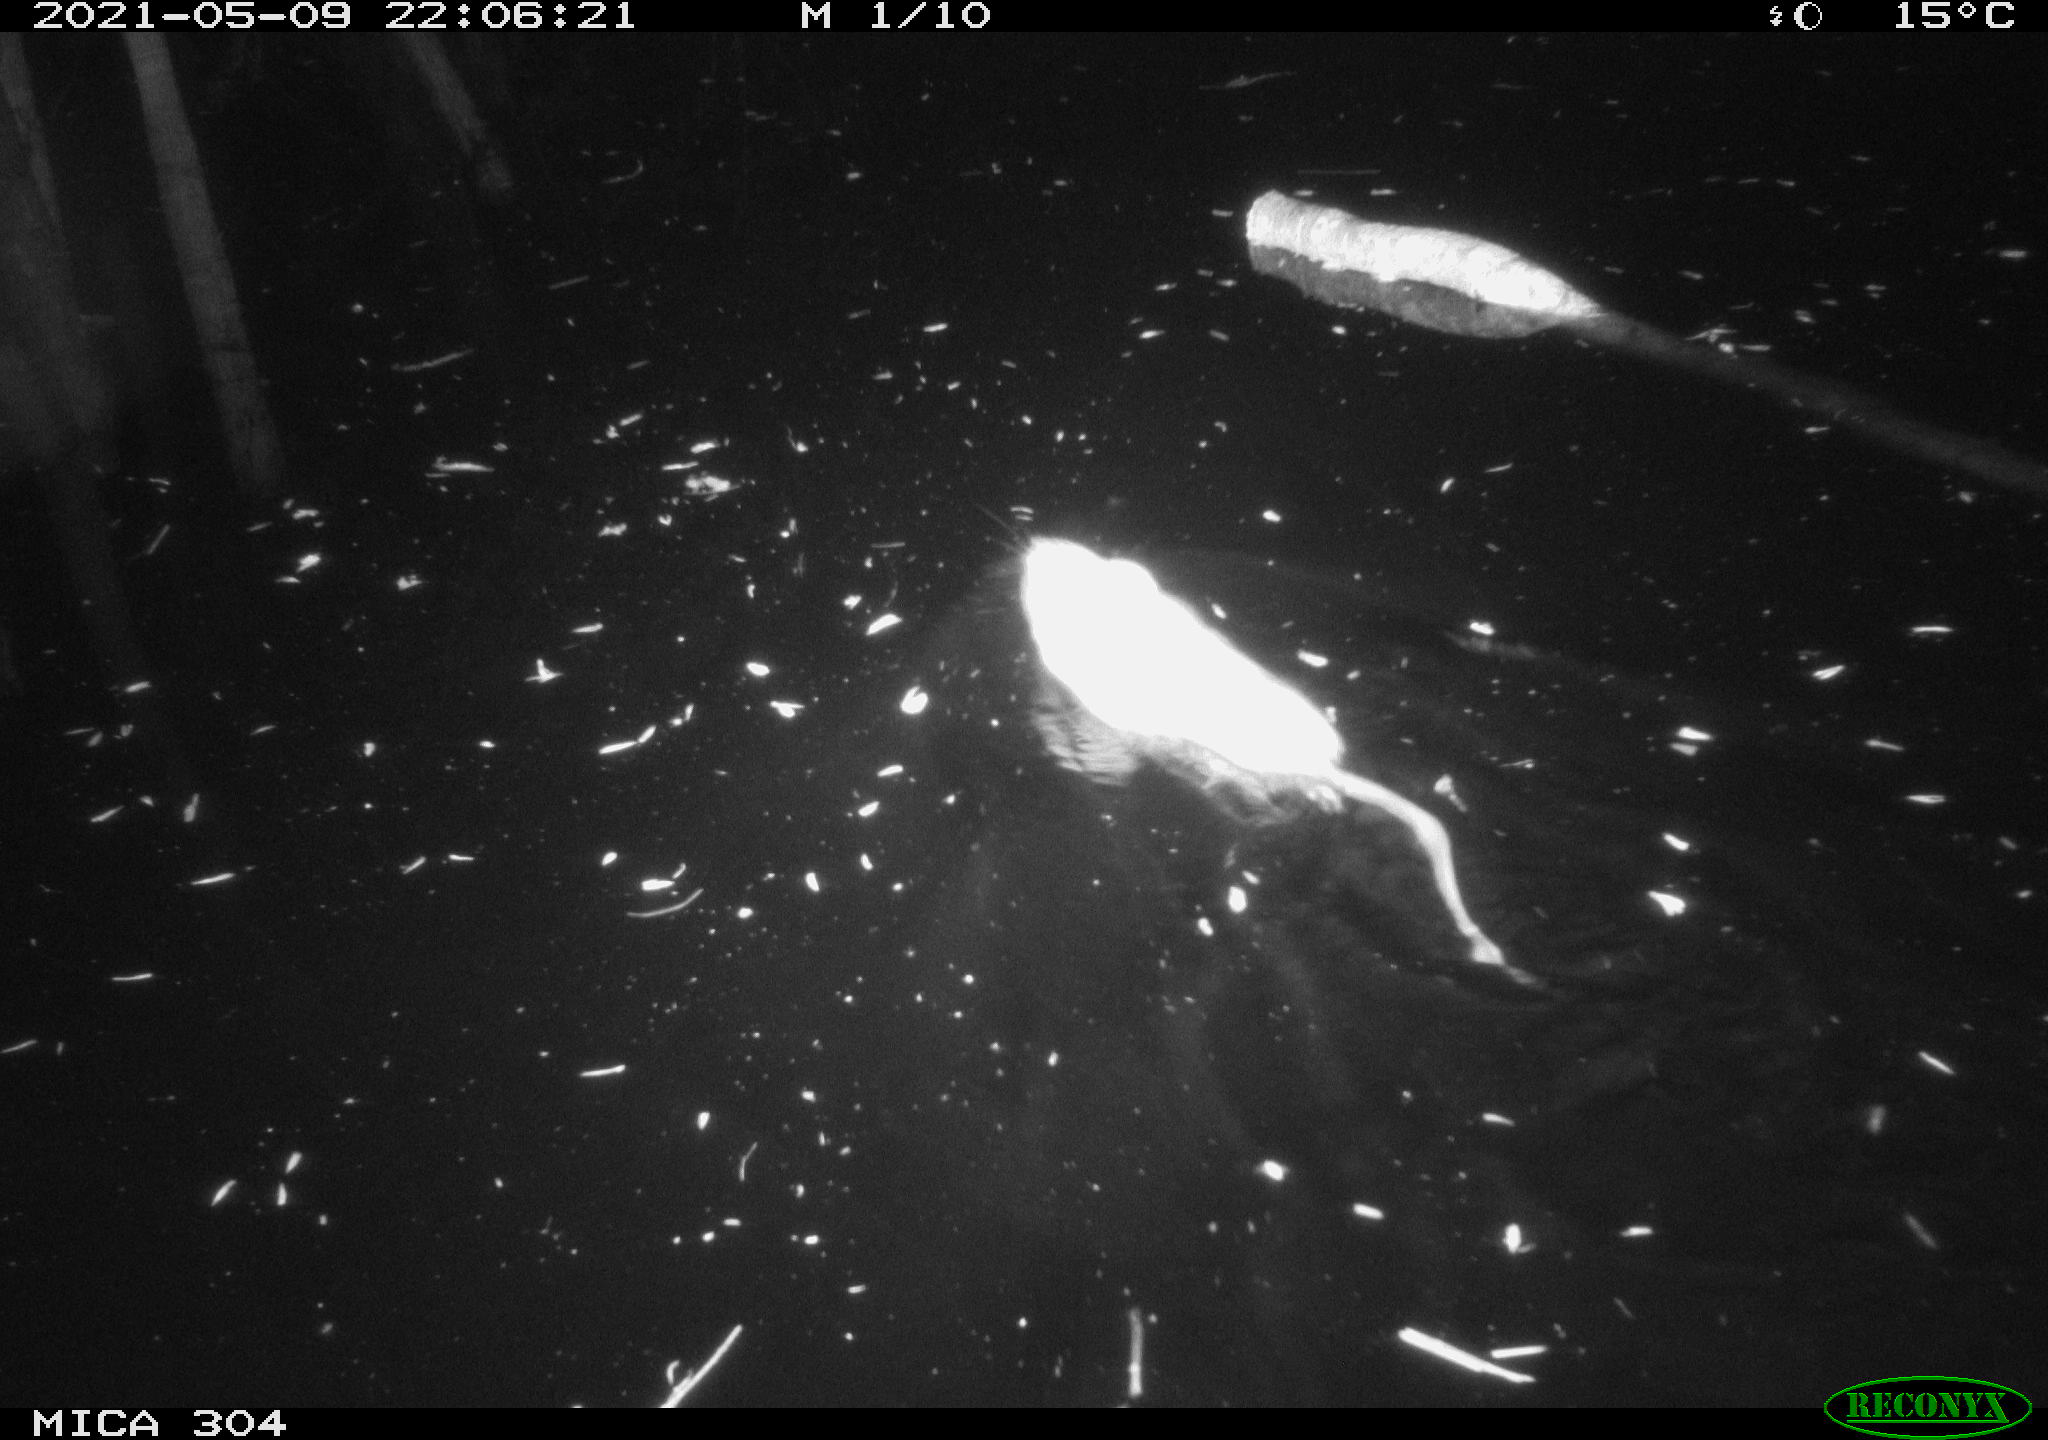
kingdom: Animalia
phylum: Chordata
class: Mammalia
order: Rodentia
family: Cricetidae
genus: Ondatra
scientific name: Ondatra zibethicus
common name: Muskrat
